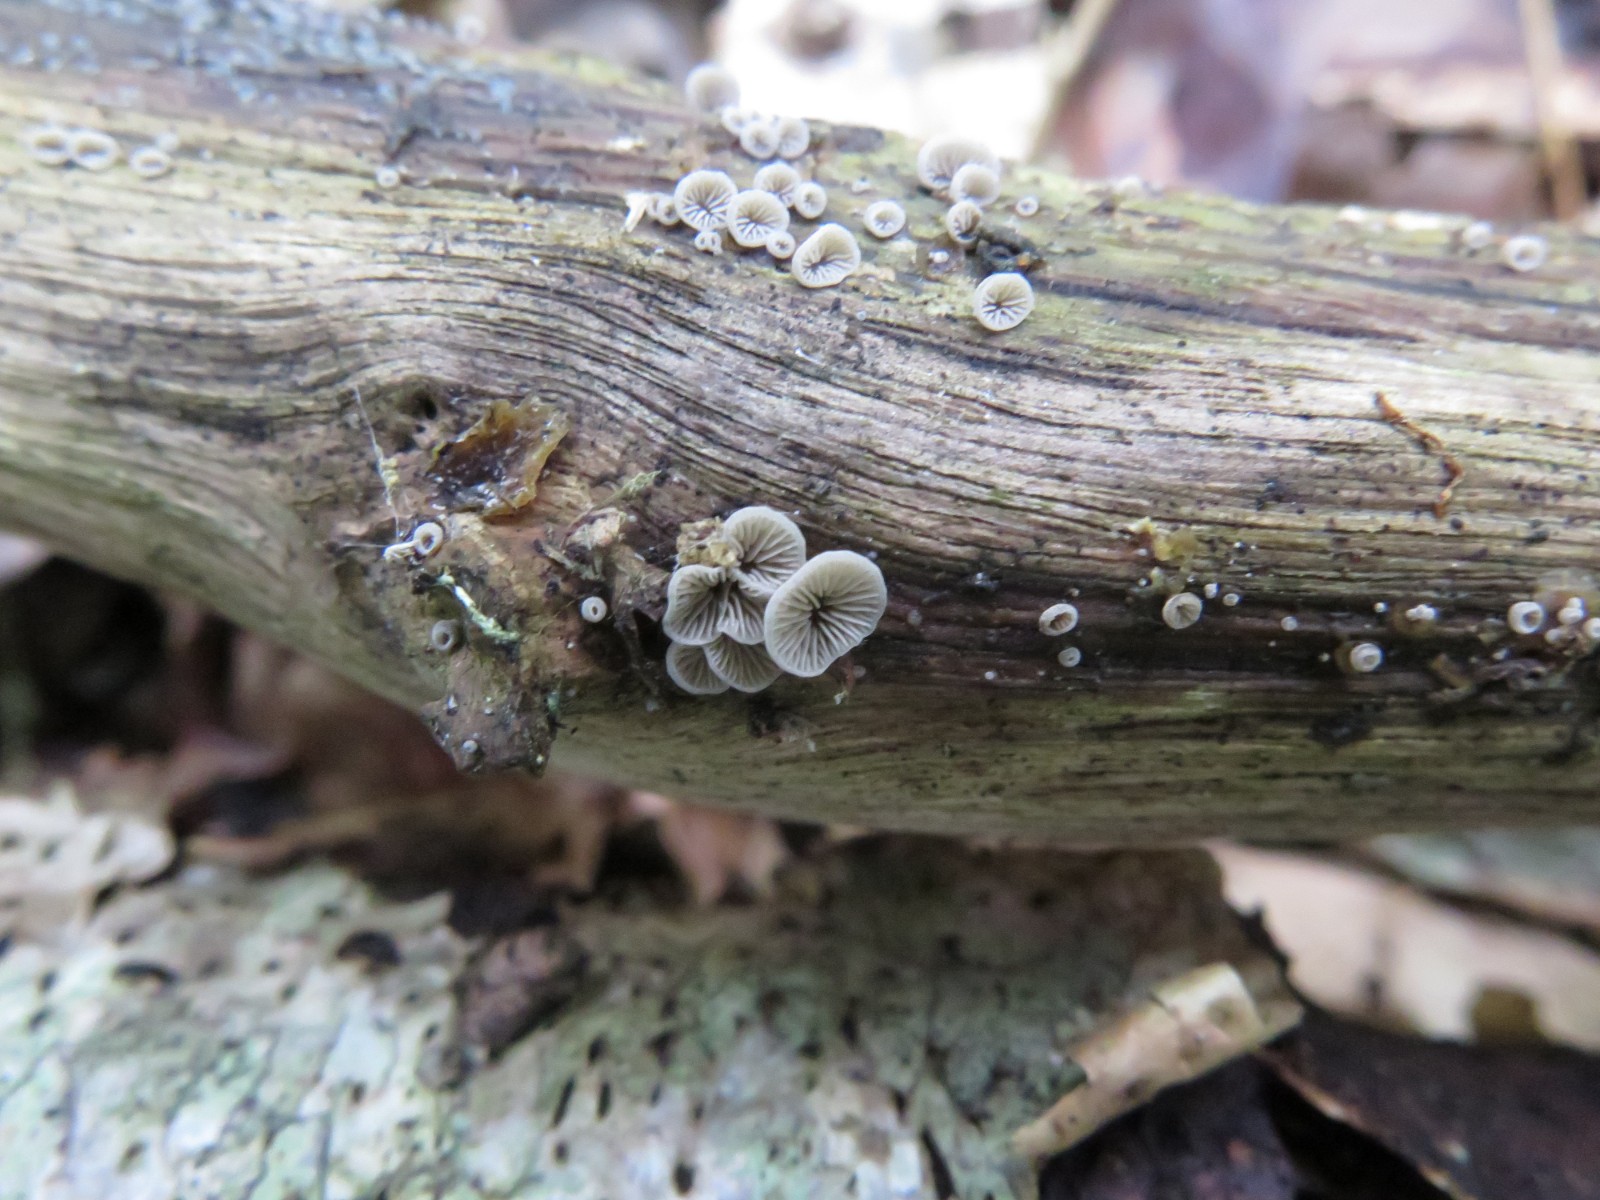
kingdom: Fungi
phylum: Basidiomycota
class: Agaricomycetes
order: Agaricales
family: Pleurotaceae
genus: Resupinatus
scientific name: Resupinatus applicatus
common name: lysfiltet barkhat
